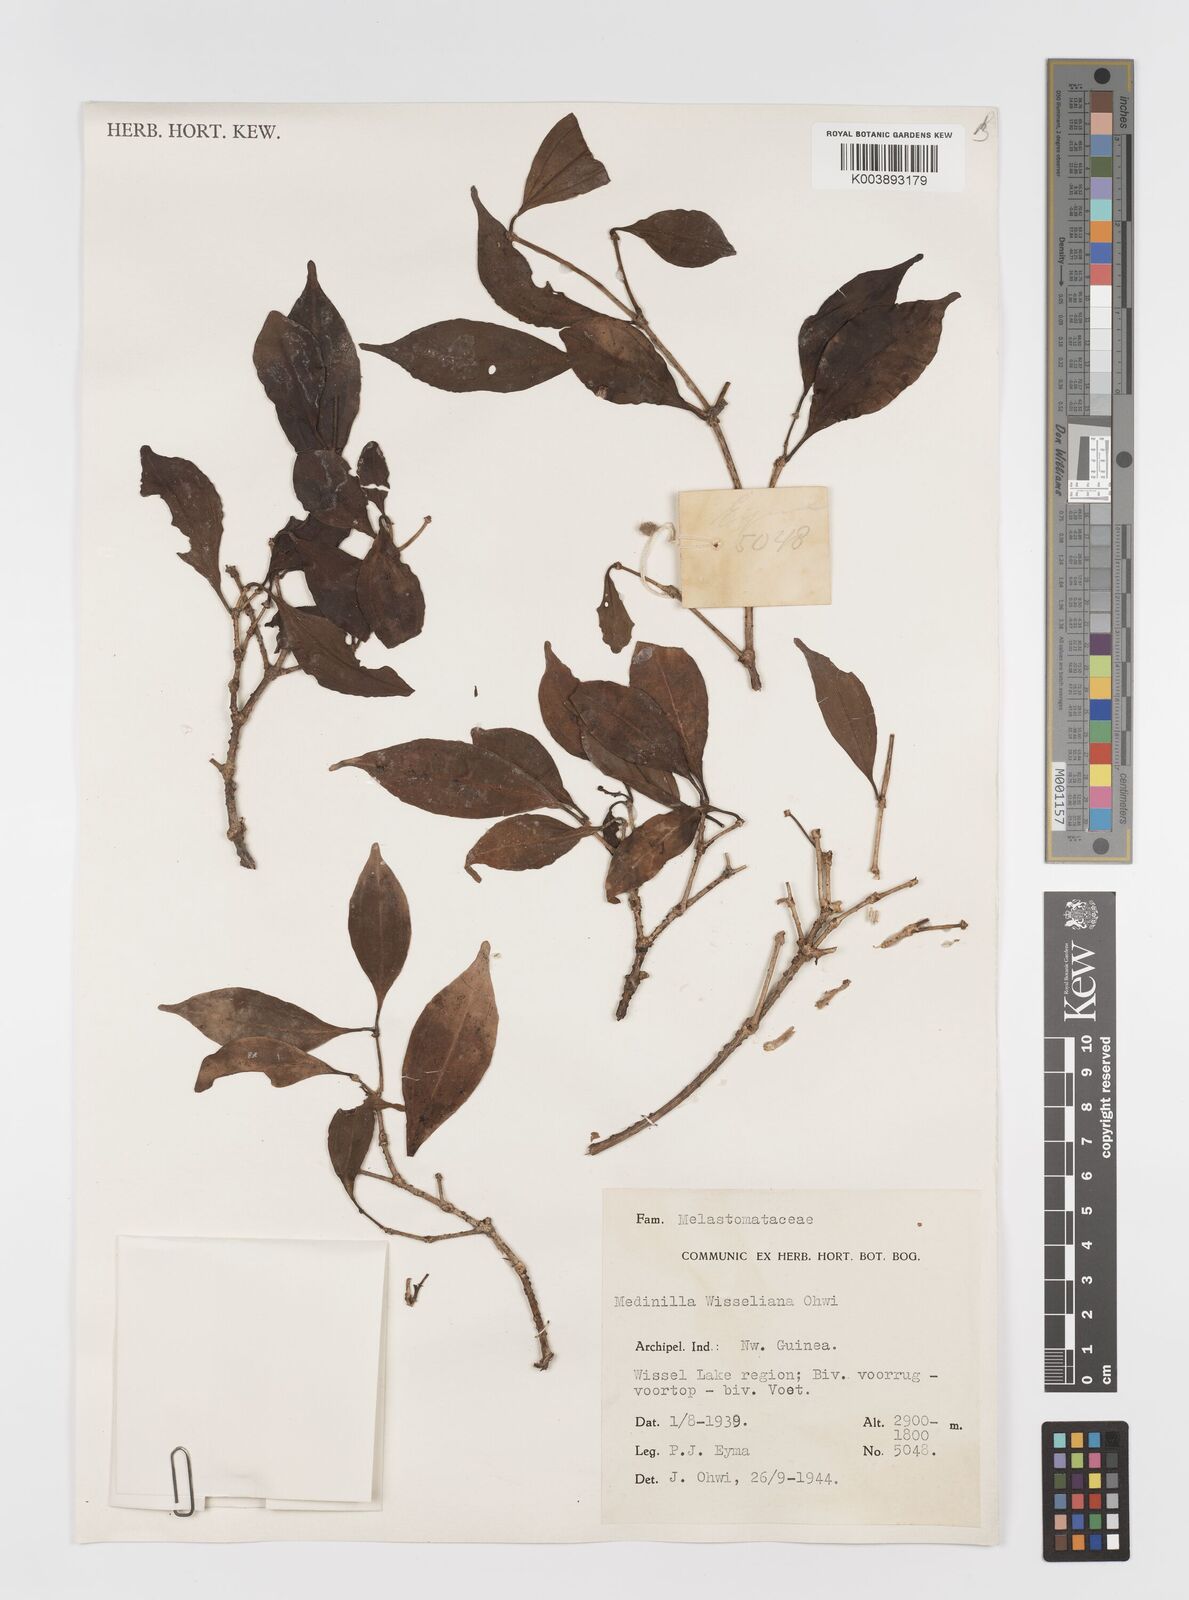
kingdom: Plantae
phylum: Tracheophyta
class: Magnoliopsida
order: Myrtales
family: Melastomataceae
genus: Medinilla
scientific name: Medinilla
